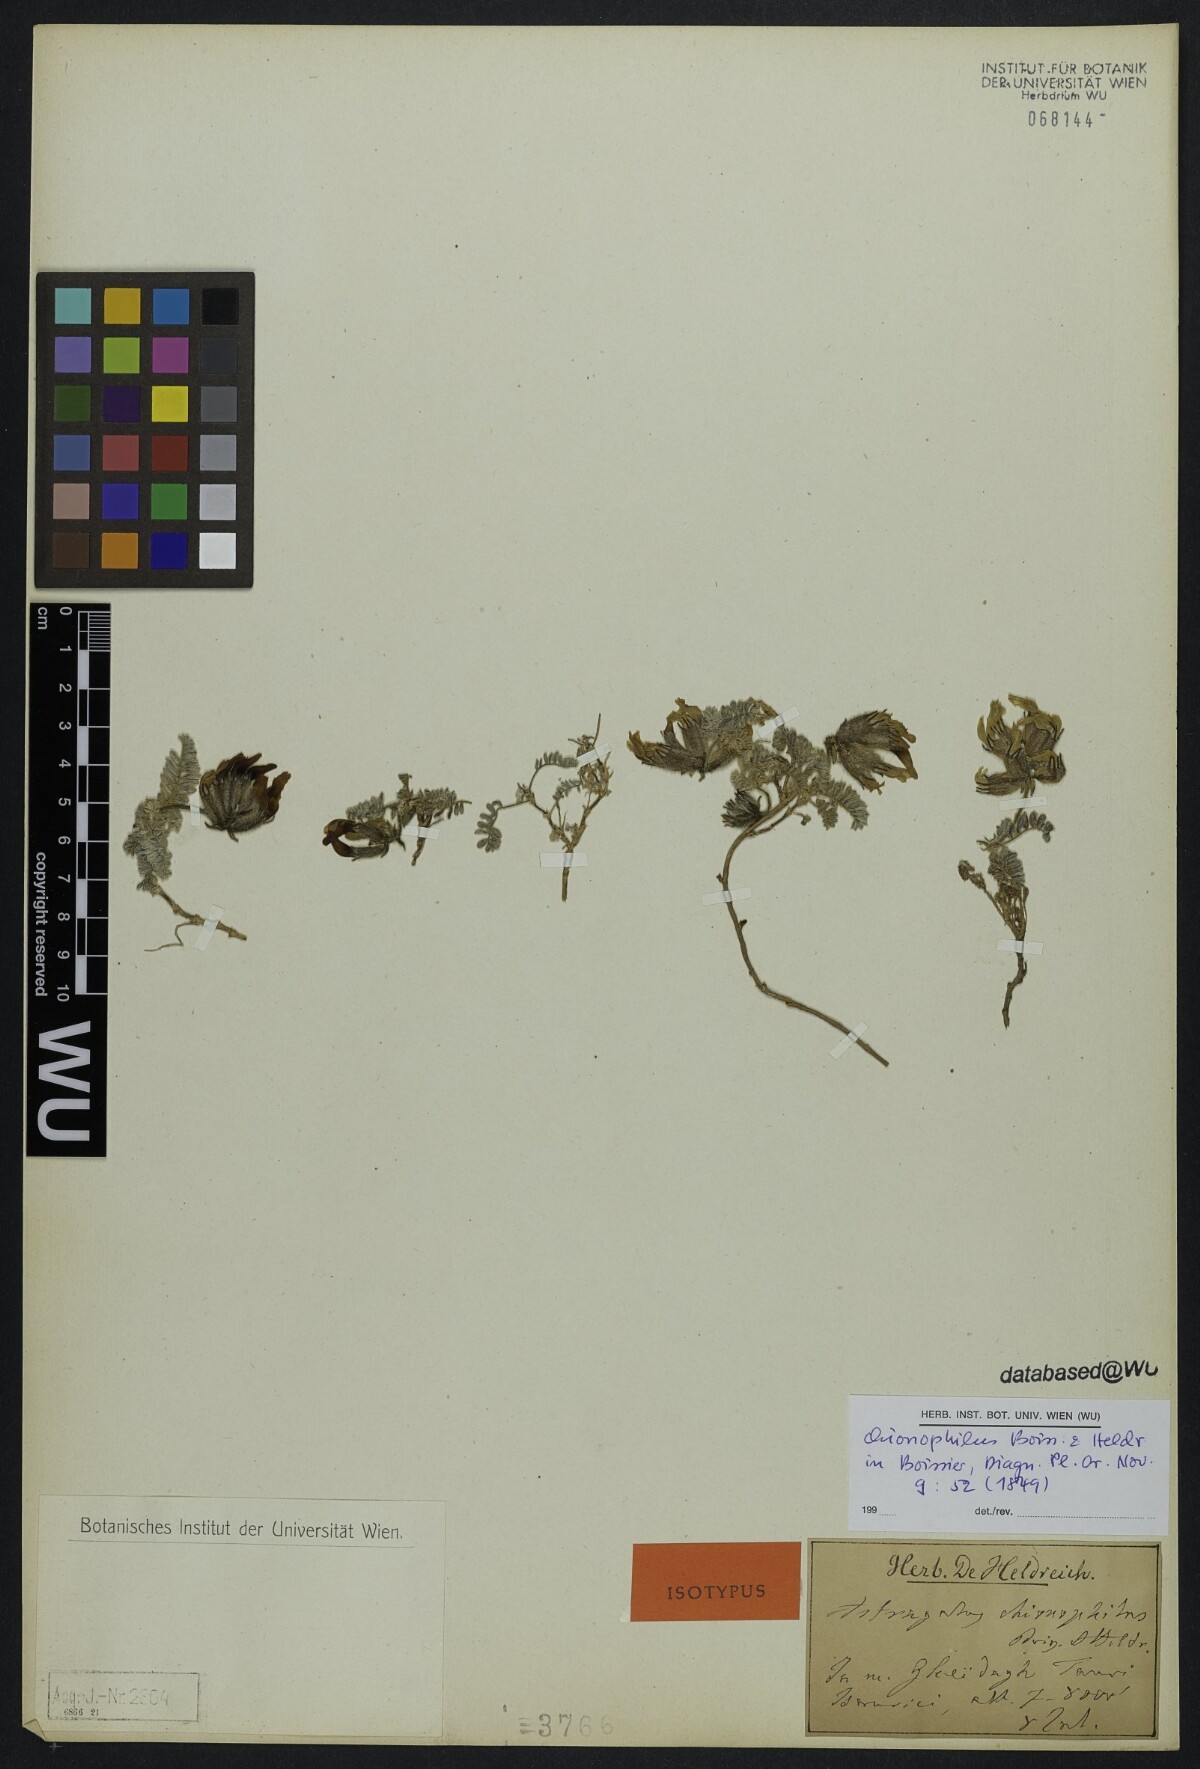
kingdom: Plantae
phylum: Tracheophyta
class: Magnoliopsida
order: Fabales
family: Fabaceae
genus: Astragalus
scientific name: Astragalus lineatus
